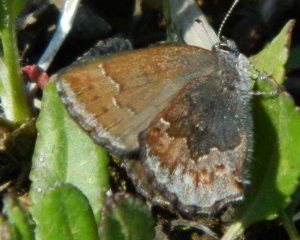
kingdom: Animalia
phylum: Arthropoda
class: Insecta
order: Lepidoptera
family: Lycaenidae
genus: Callophrys
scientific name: Callophrys polios
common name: Hoary Elfin
